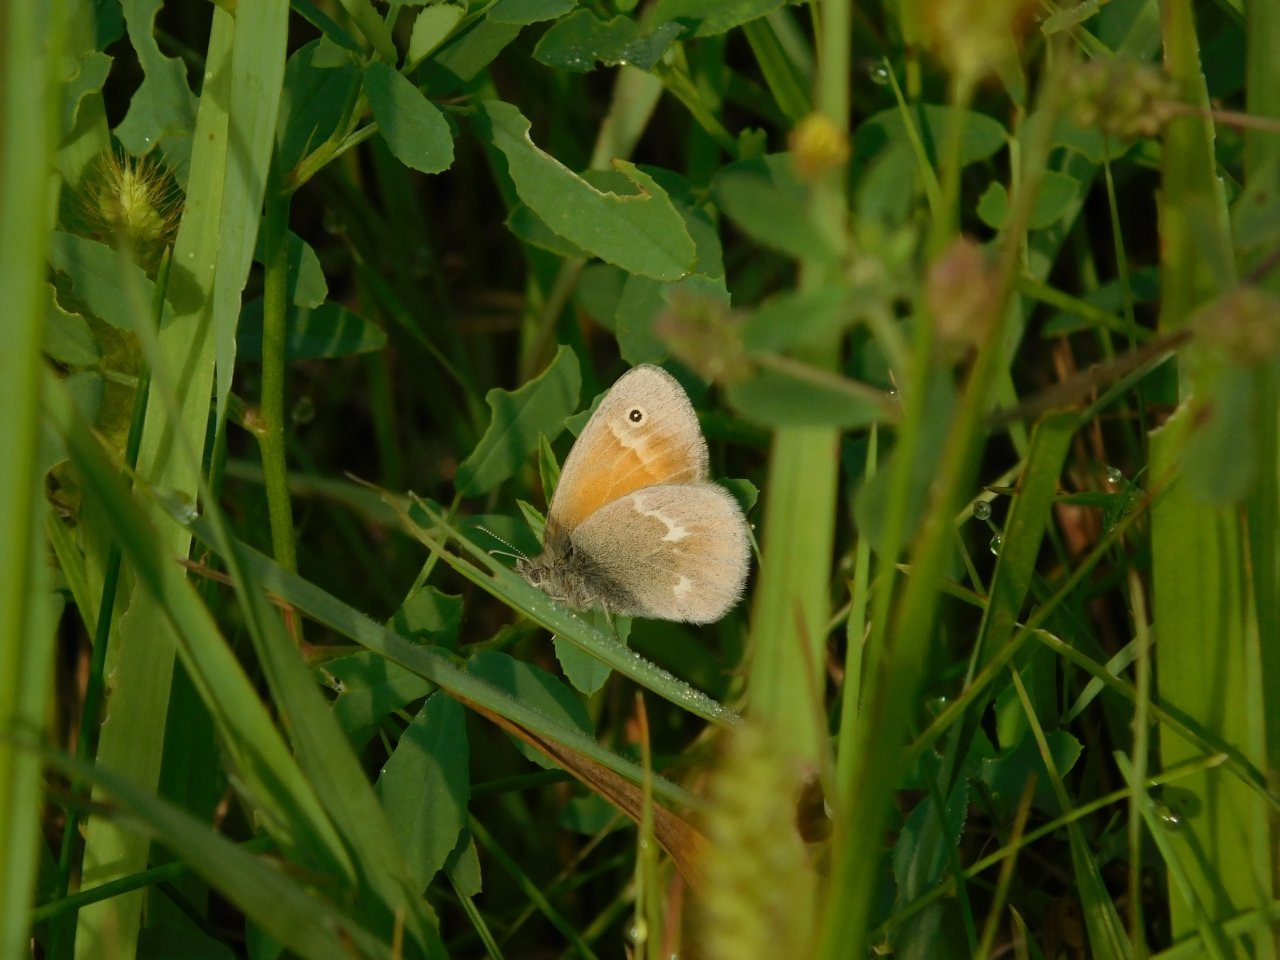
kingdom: Animalia
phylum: Arthropoda
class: Insecta
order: Lepidoptera
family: Nymphalidae
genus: Coenonympha
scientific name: Coenonympha tullia
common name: Large Heath
